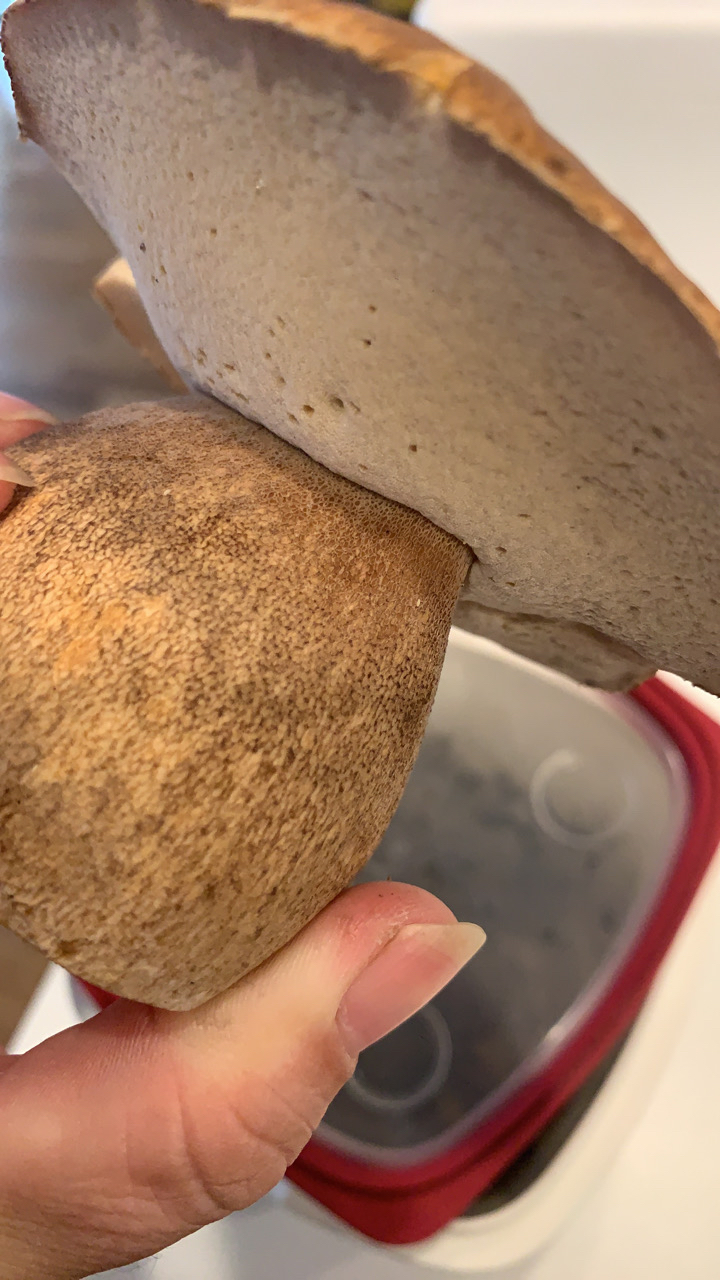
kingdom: Fungi
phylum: Basidiomycota
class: Agaricomycetes
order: Boletales
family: Boletaceae
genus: Boletus
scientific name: Boletus reticulatus
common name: sommer-rørhat
